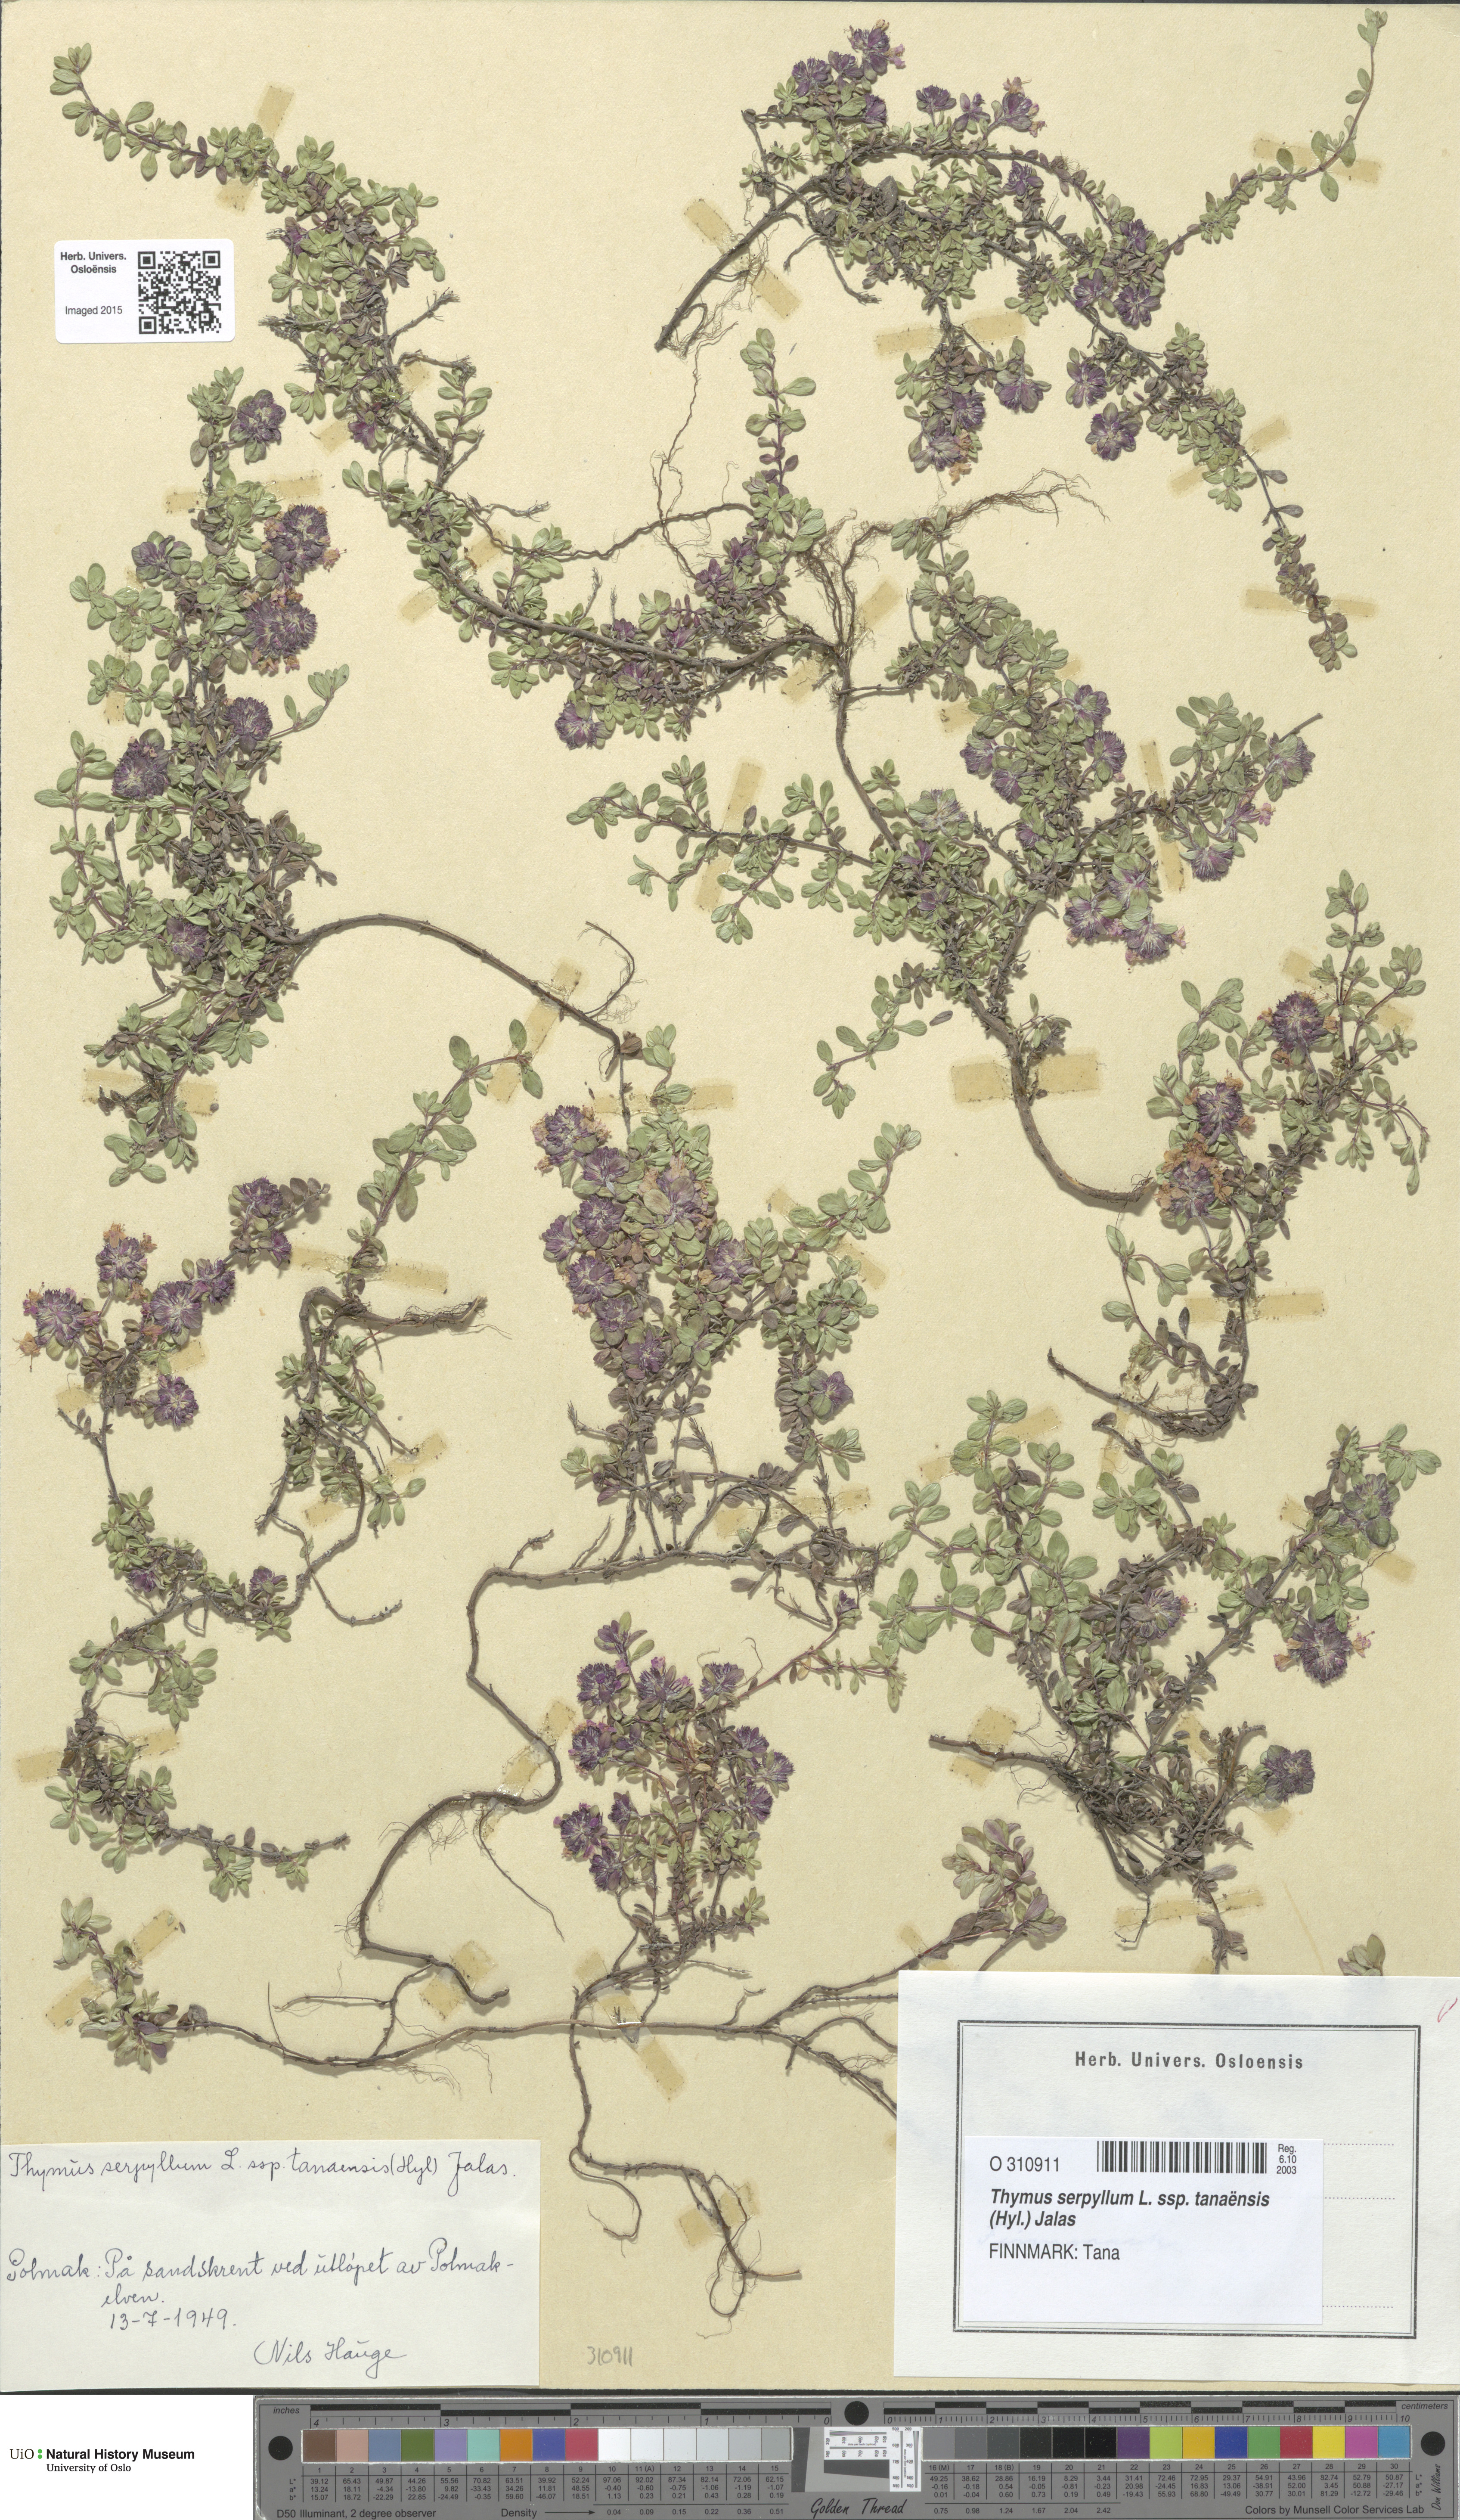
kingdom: Plantae
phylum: Tracheophyta
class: Magnoliopsida
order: Lamiales
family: Lamiaceae
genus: Thymus
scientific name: Thymus serpyllum
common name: Breckland thyme
